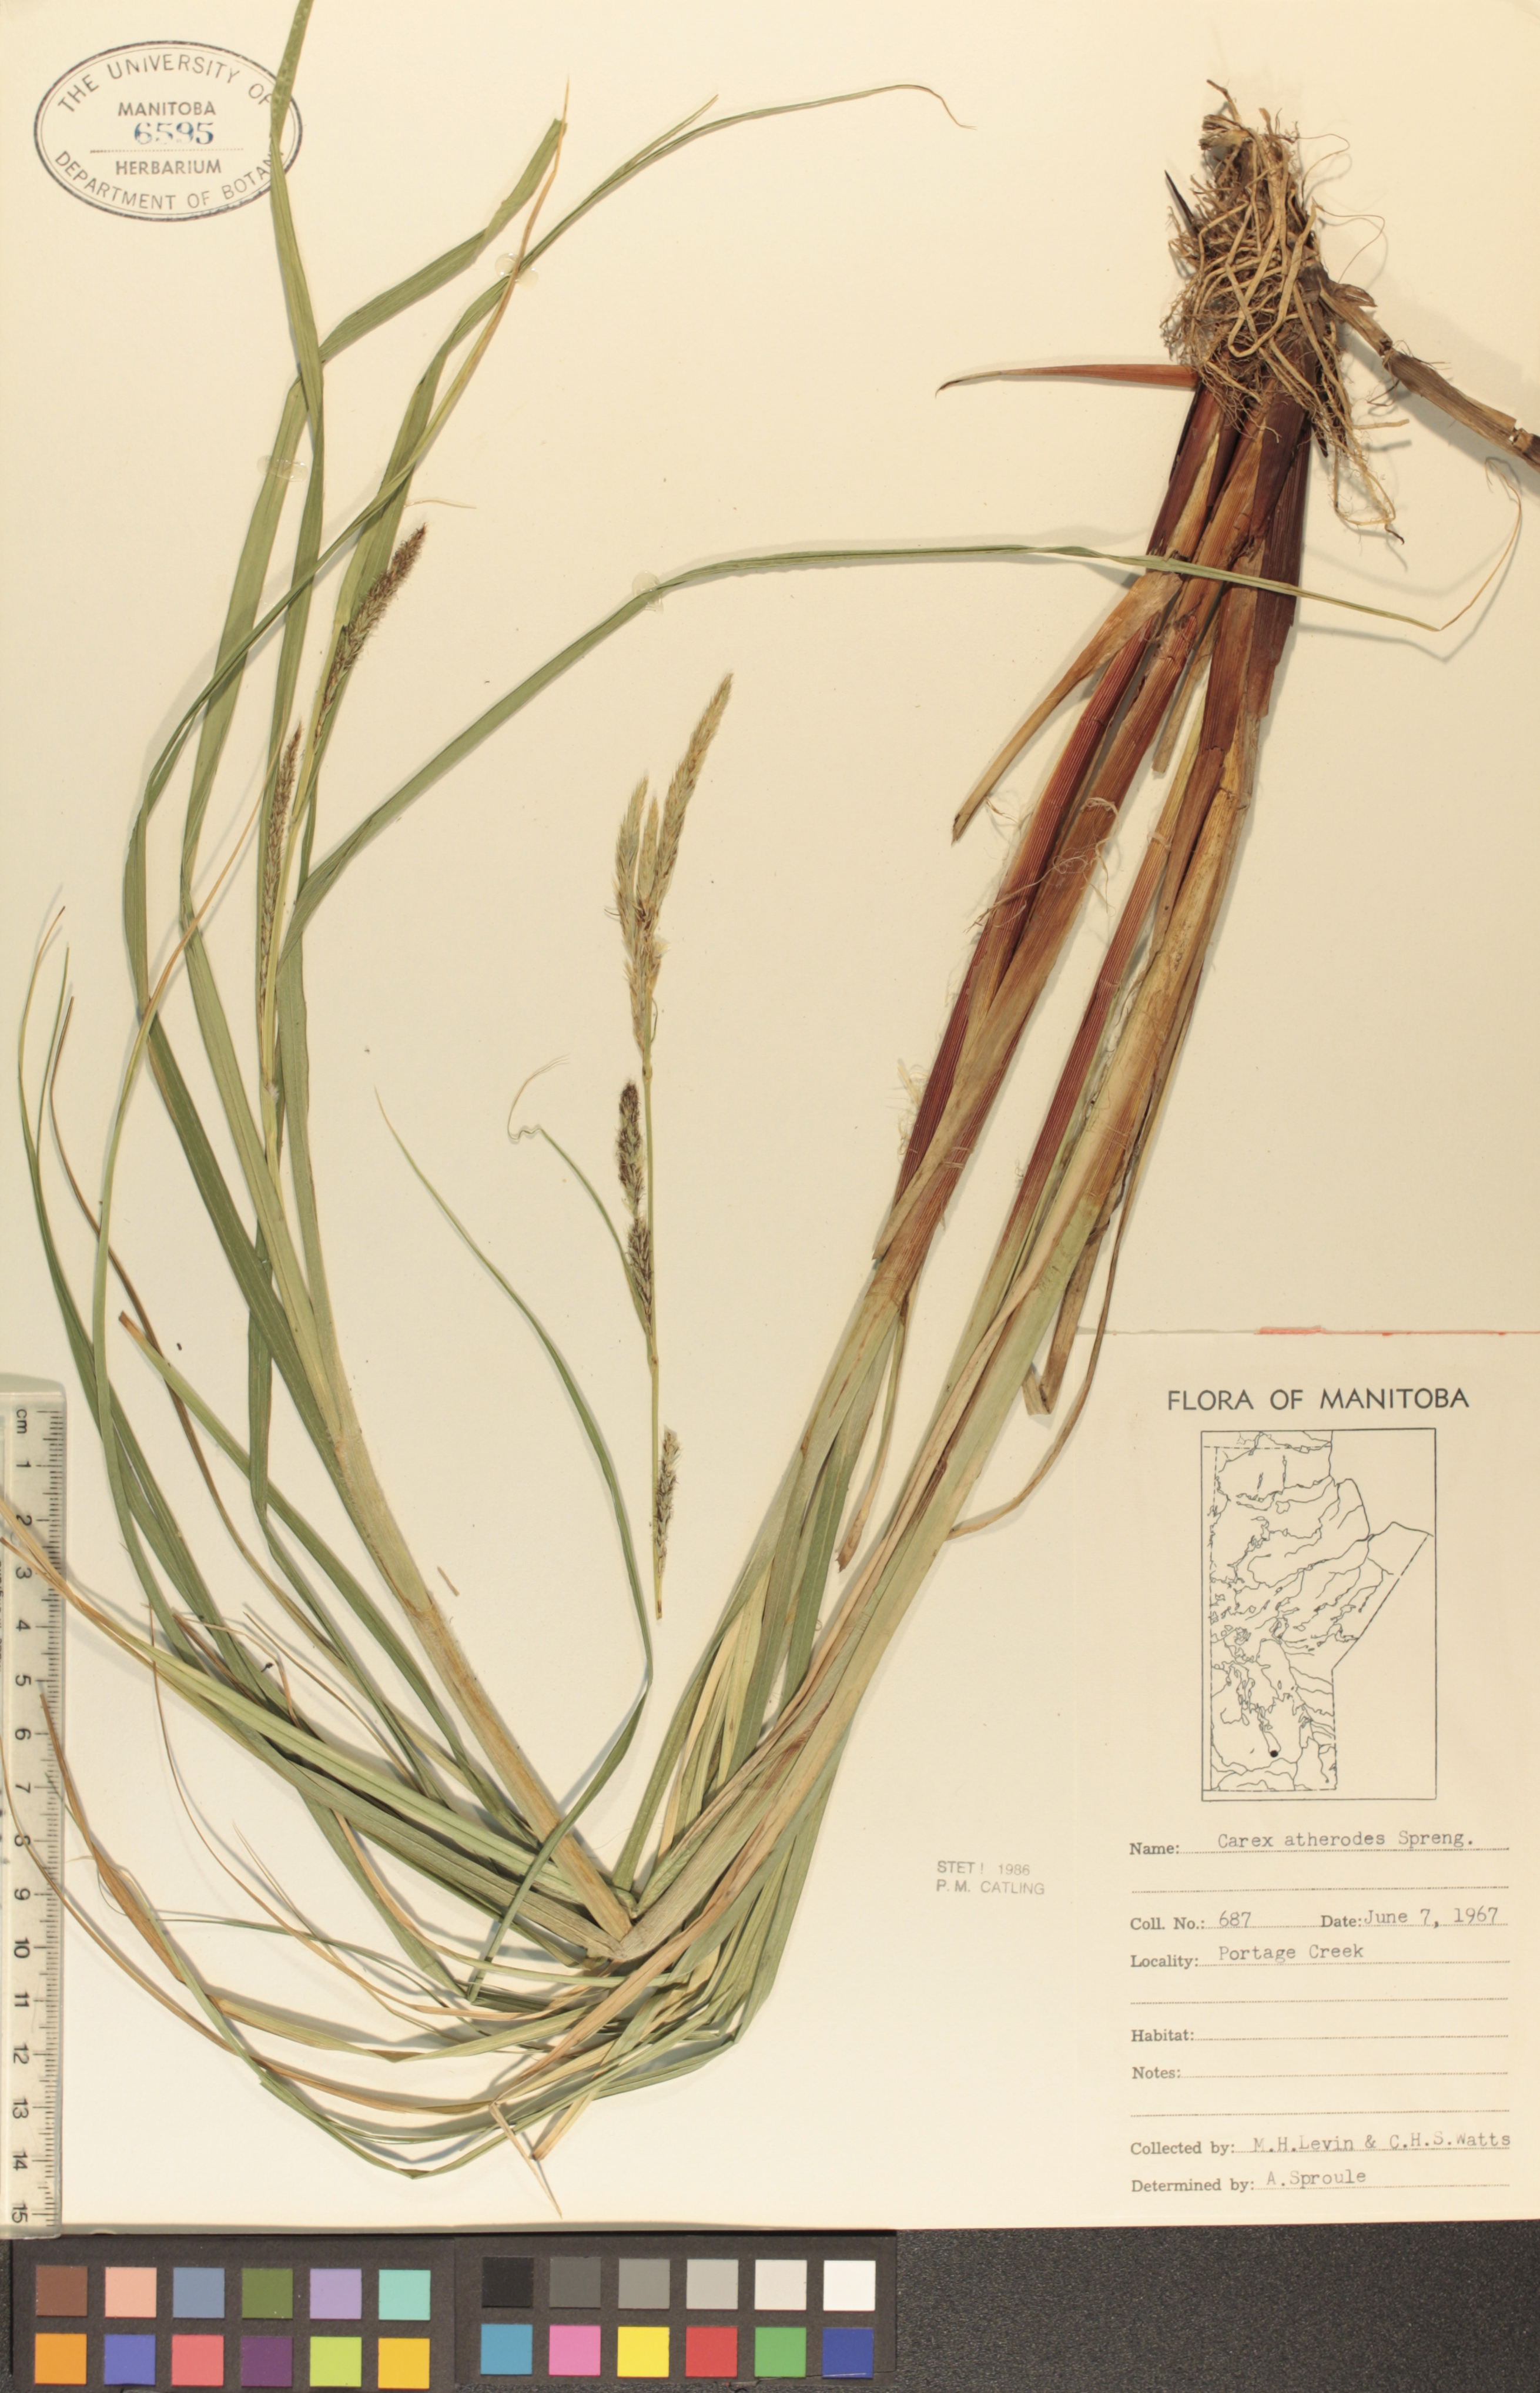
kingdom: Plantae
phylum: Tracheophyta
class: Liliopsida
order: Poales
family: Cyperaceae
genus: Carex
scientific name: Carex atherodes
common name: Wheat sedge
